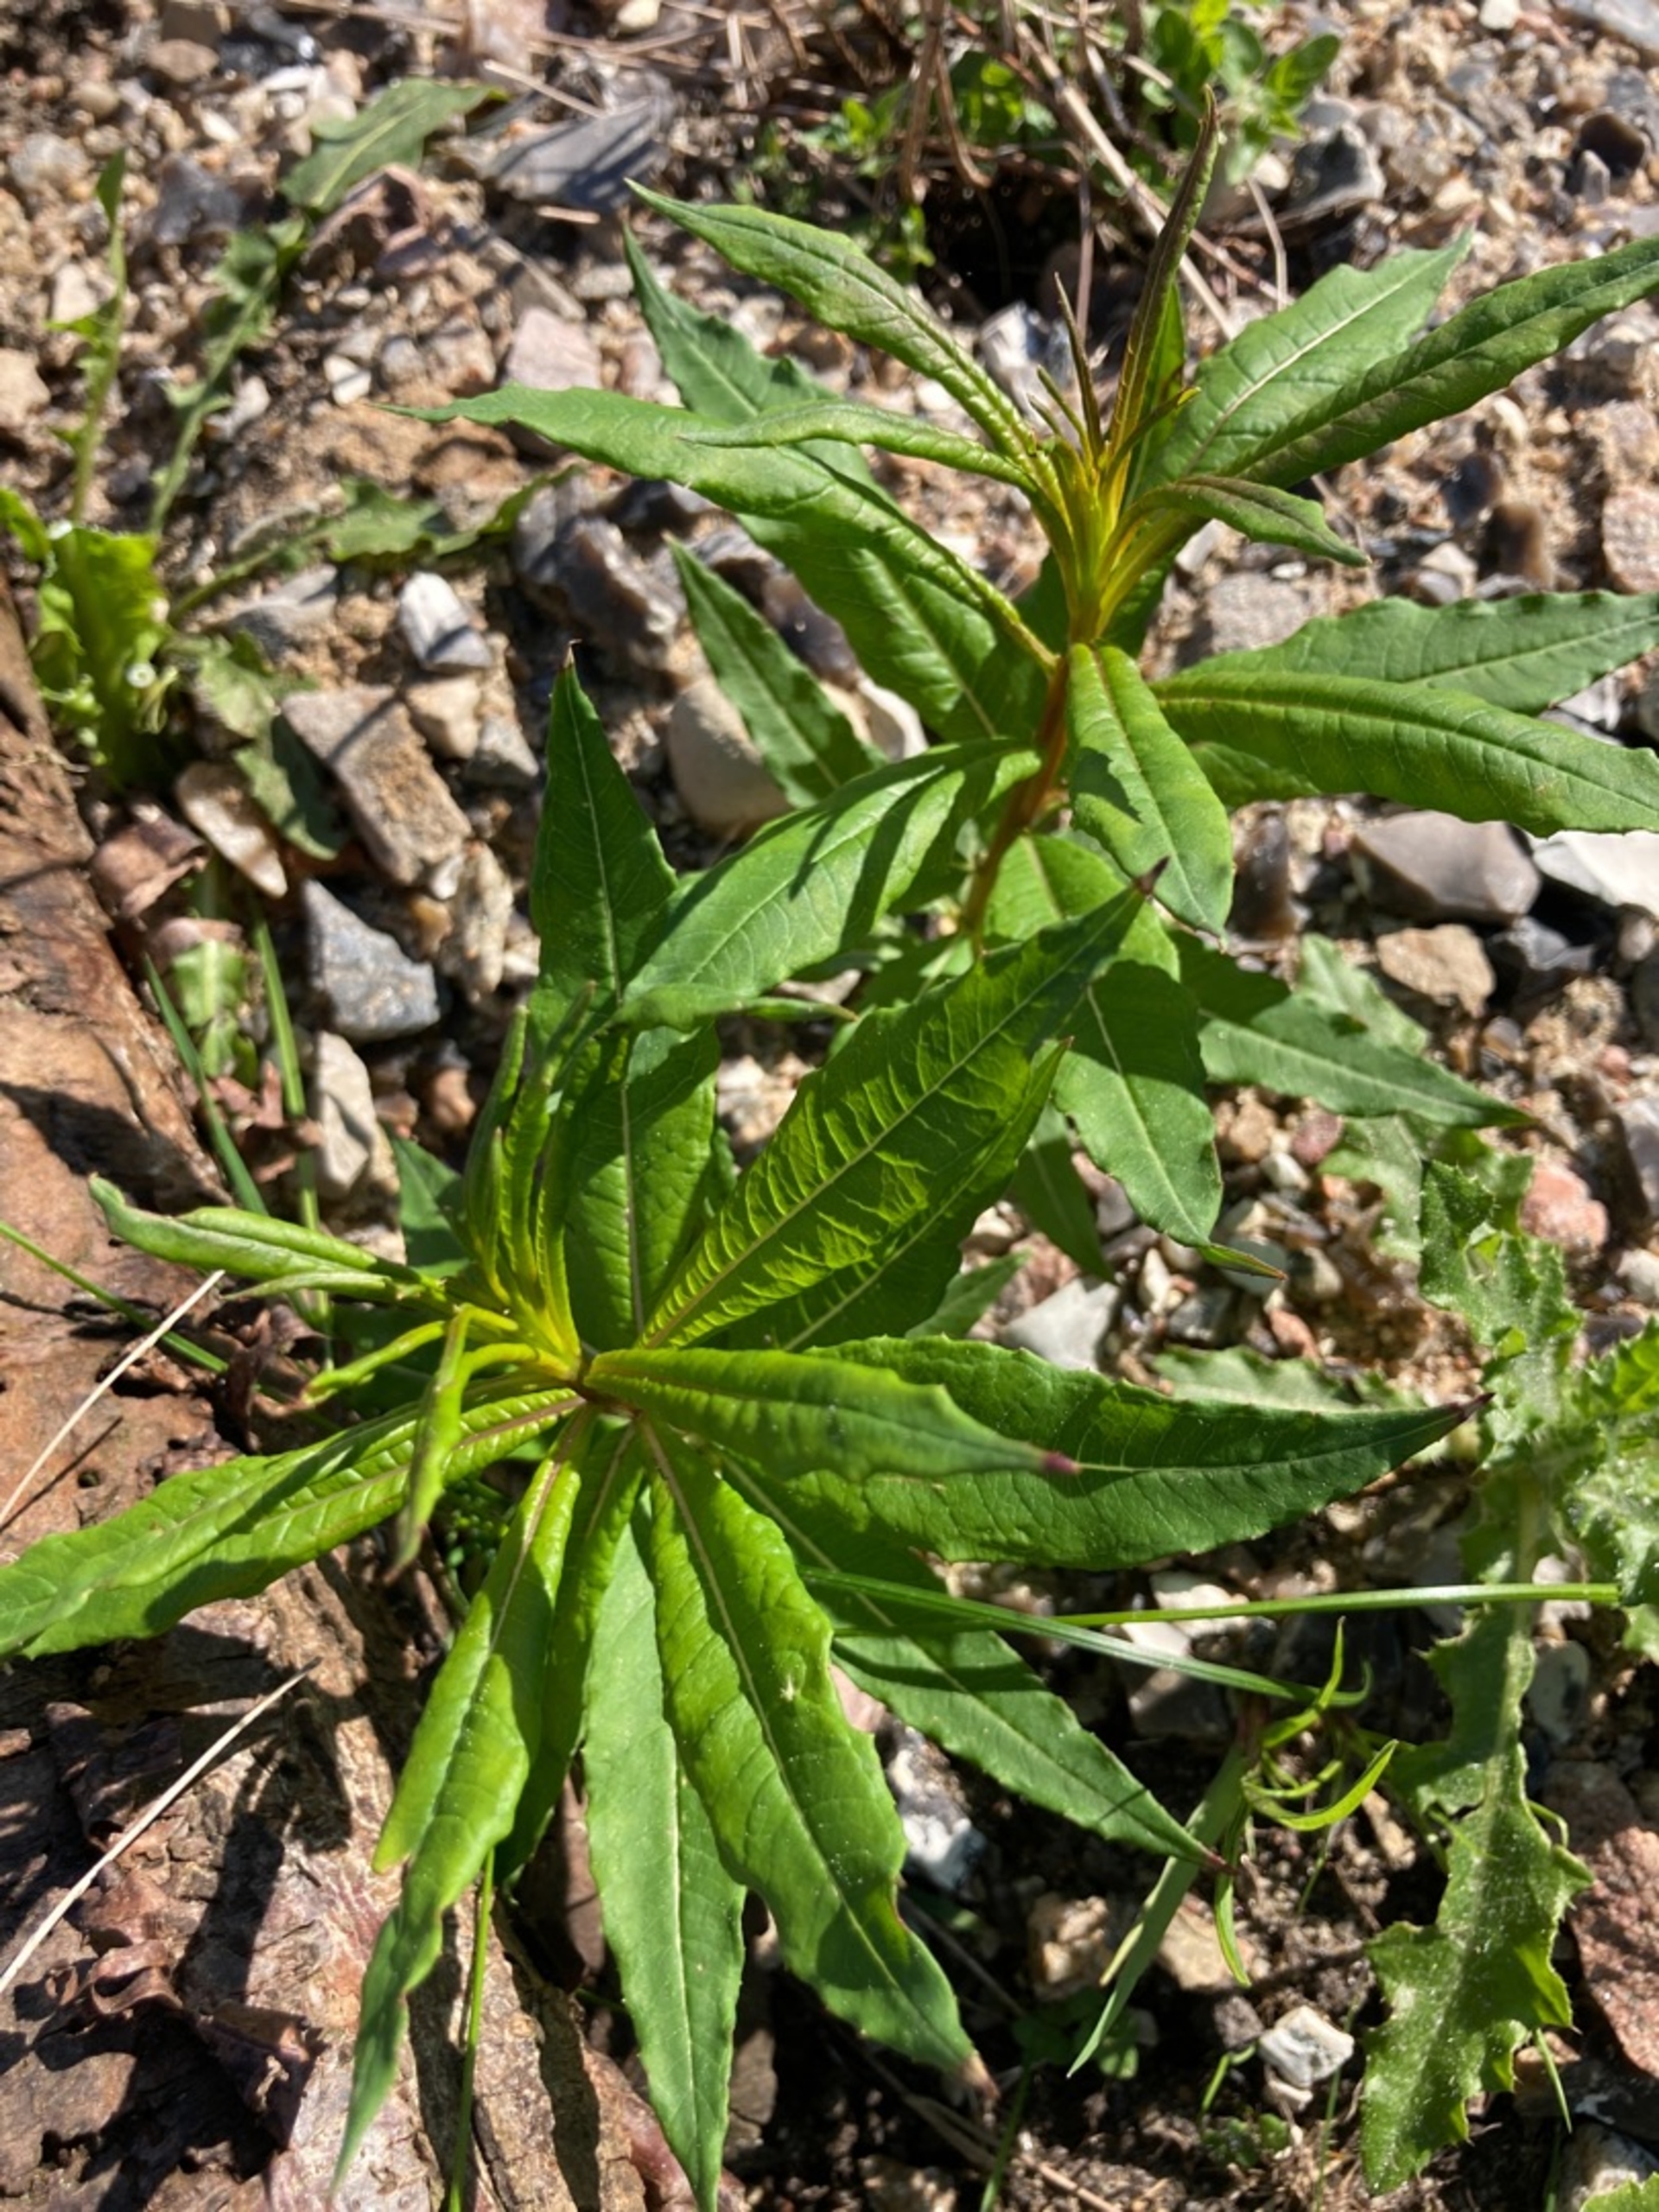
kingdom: Plantae
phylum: Tracheophyta
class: Magnoliopsida
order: Myrtales
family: Onagraceae
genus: Chamaenerion
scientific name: Chamaenerion angustifolium
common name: Gederams
